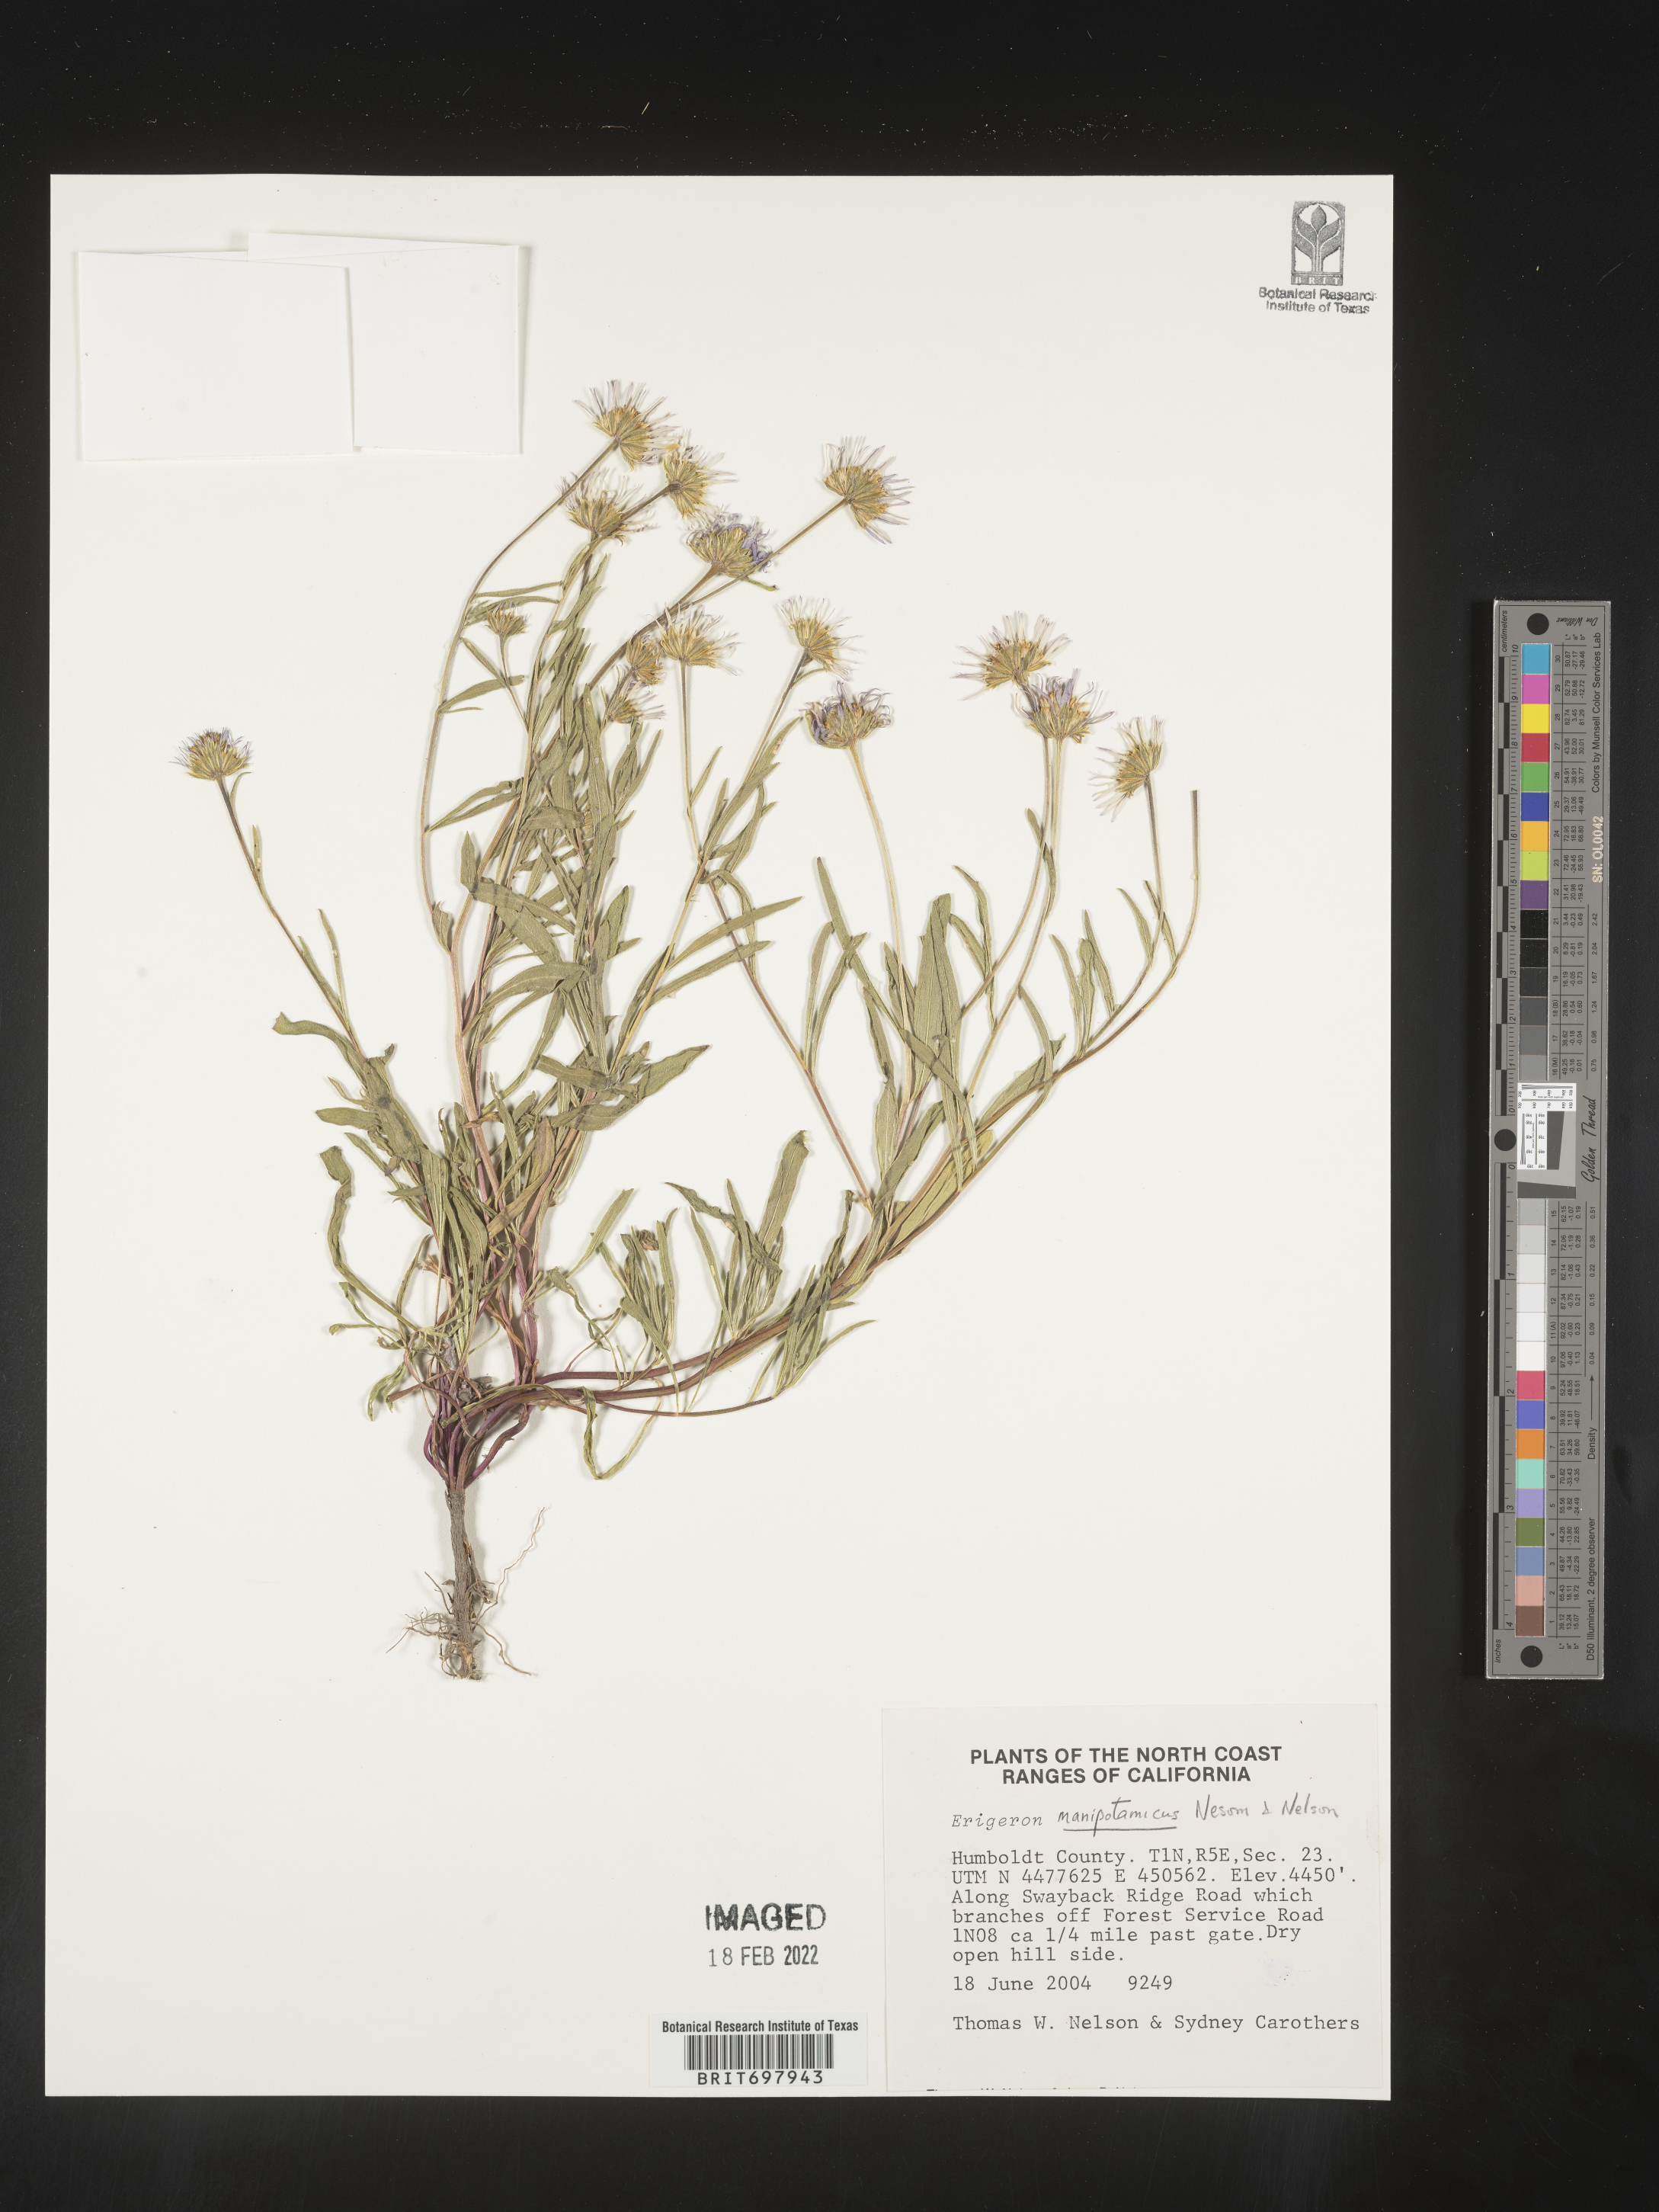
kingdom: Plantae
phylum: Tracheophyta
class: Magnoliopsida
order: Asterales
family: Asteraceae
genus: Erigeron
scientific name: Erigeron maniopotamicus
